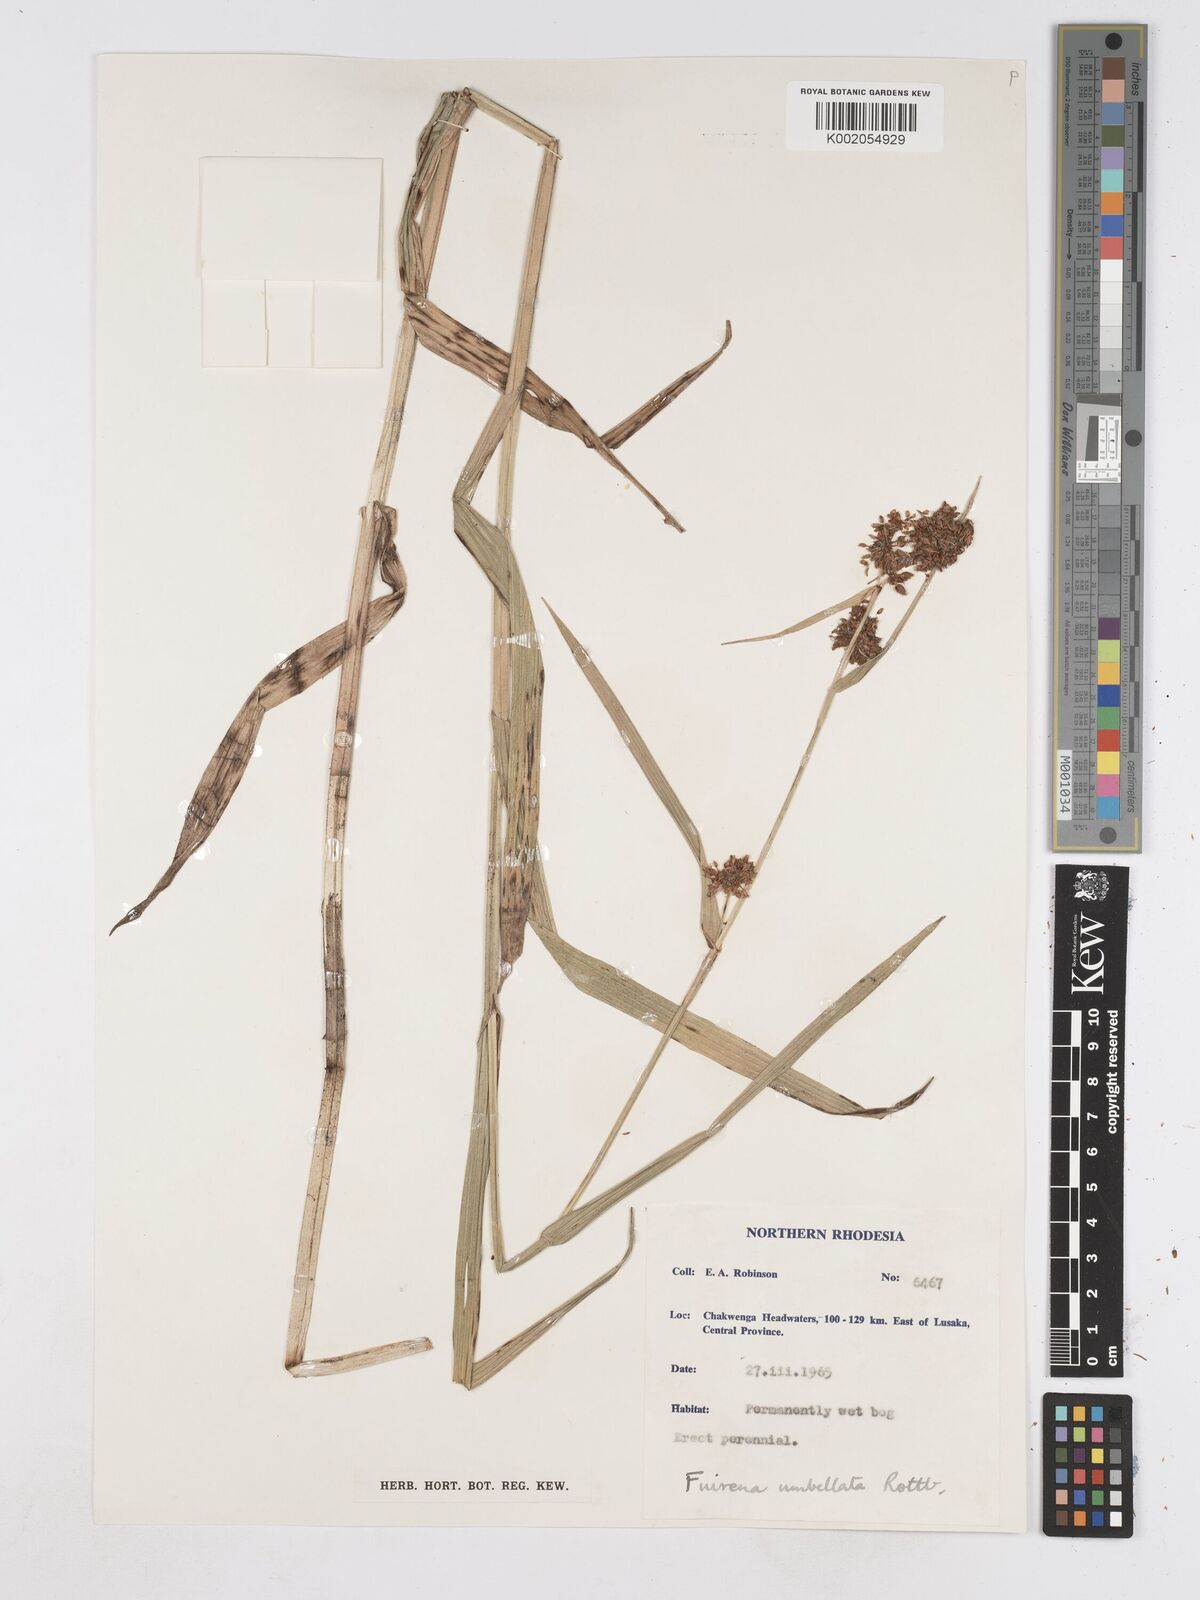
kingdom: Plantae
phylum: Tracheophyta
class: Liliopsida
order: Poales
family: Cyperaceae
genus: Fuirena
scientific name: Fuirena umbellata
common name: Yefen
